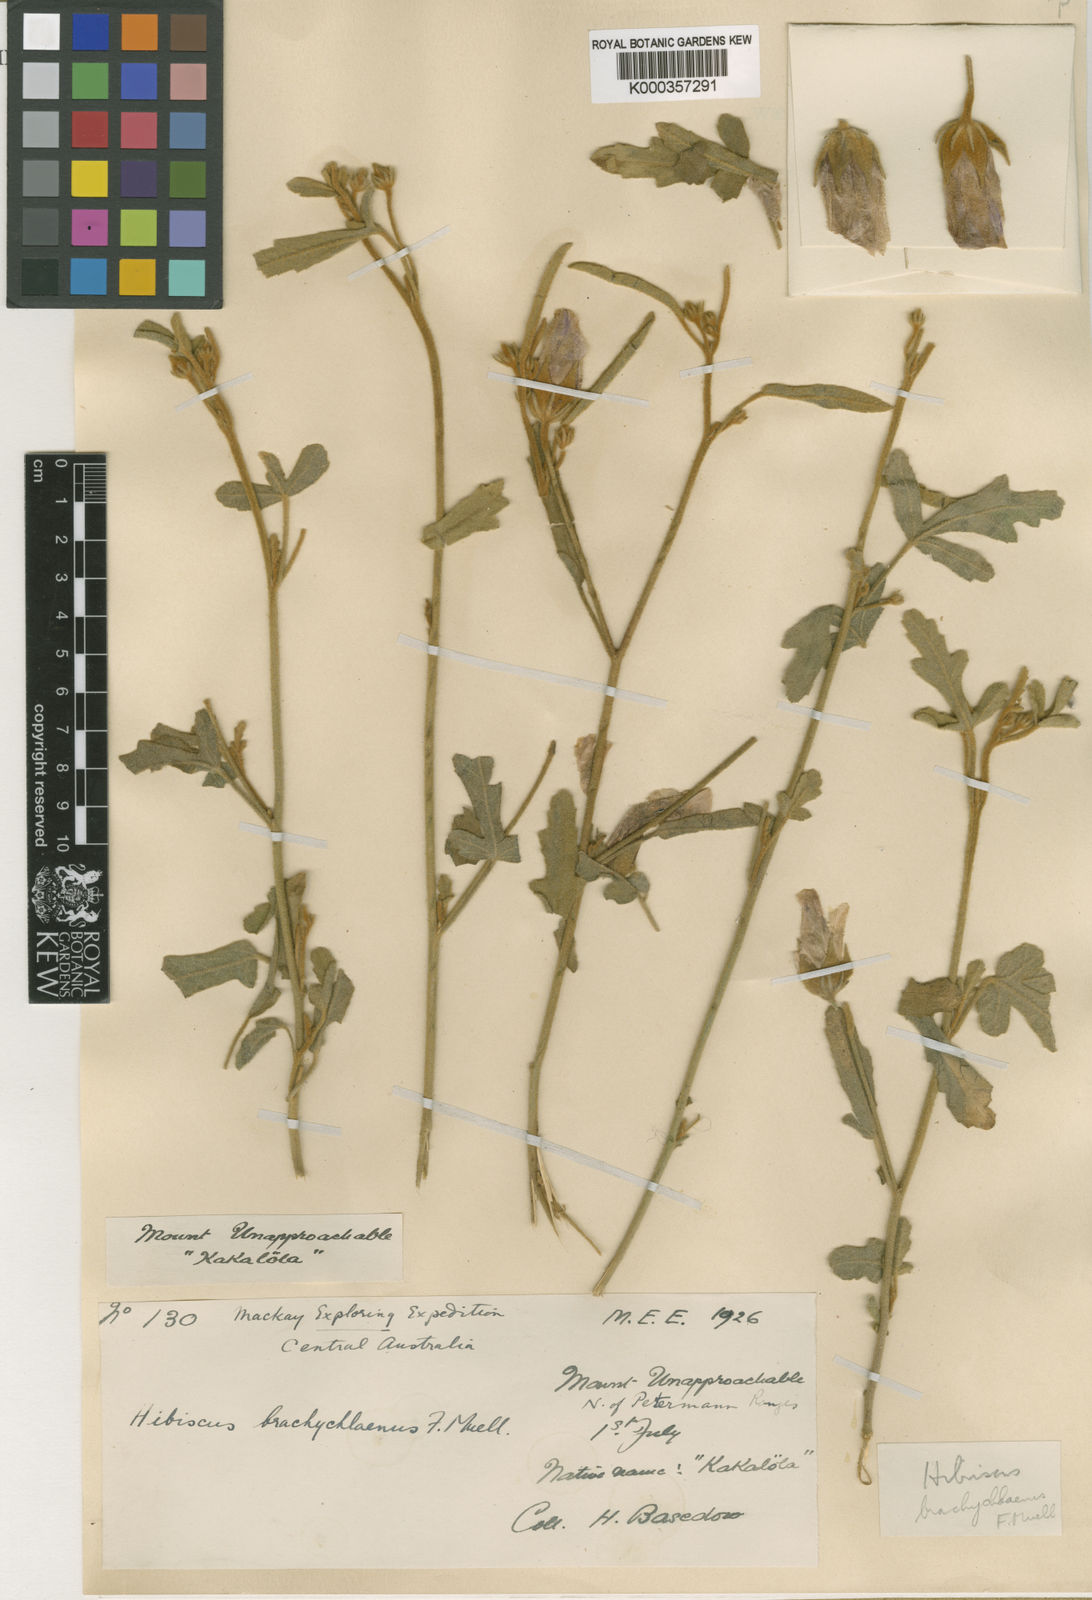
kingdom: Plantae
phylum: Tracheophyta
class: Magnoliopsida
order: Malvales
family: Malvaceae
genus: Hibiscus
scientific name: Hibiscus brachychlaenus
